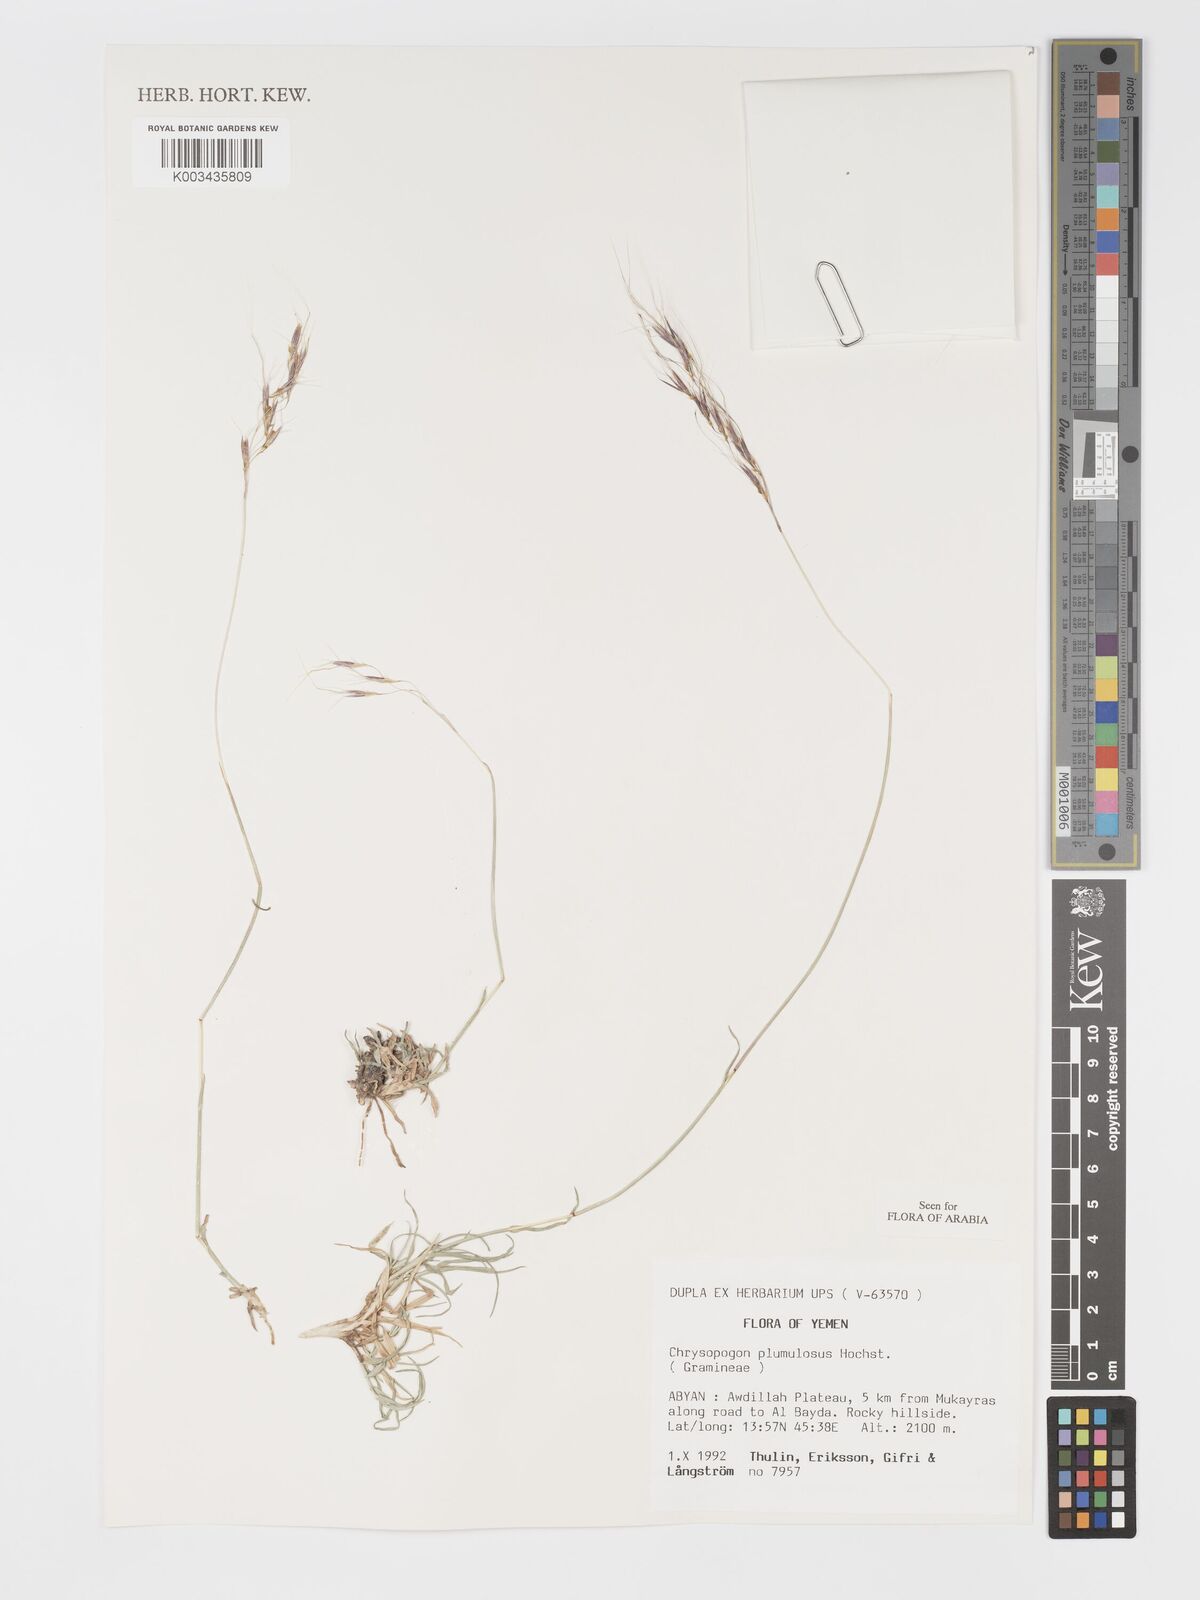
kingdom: Plantae
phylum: Tracheophyta
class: Liliopsida
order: Poales
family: Poaceae
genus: Chrysopogon
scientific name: Chrysopogon plumulosus
